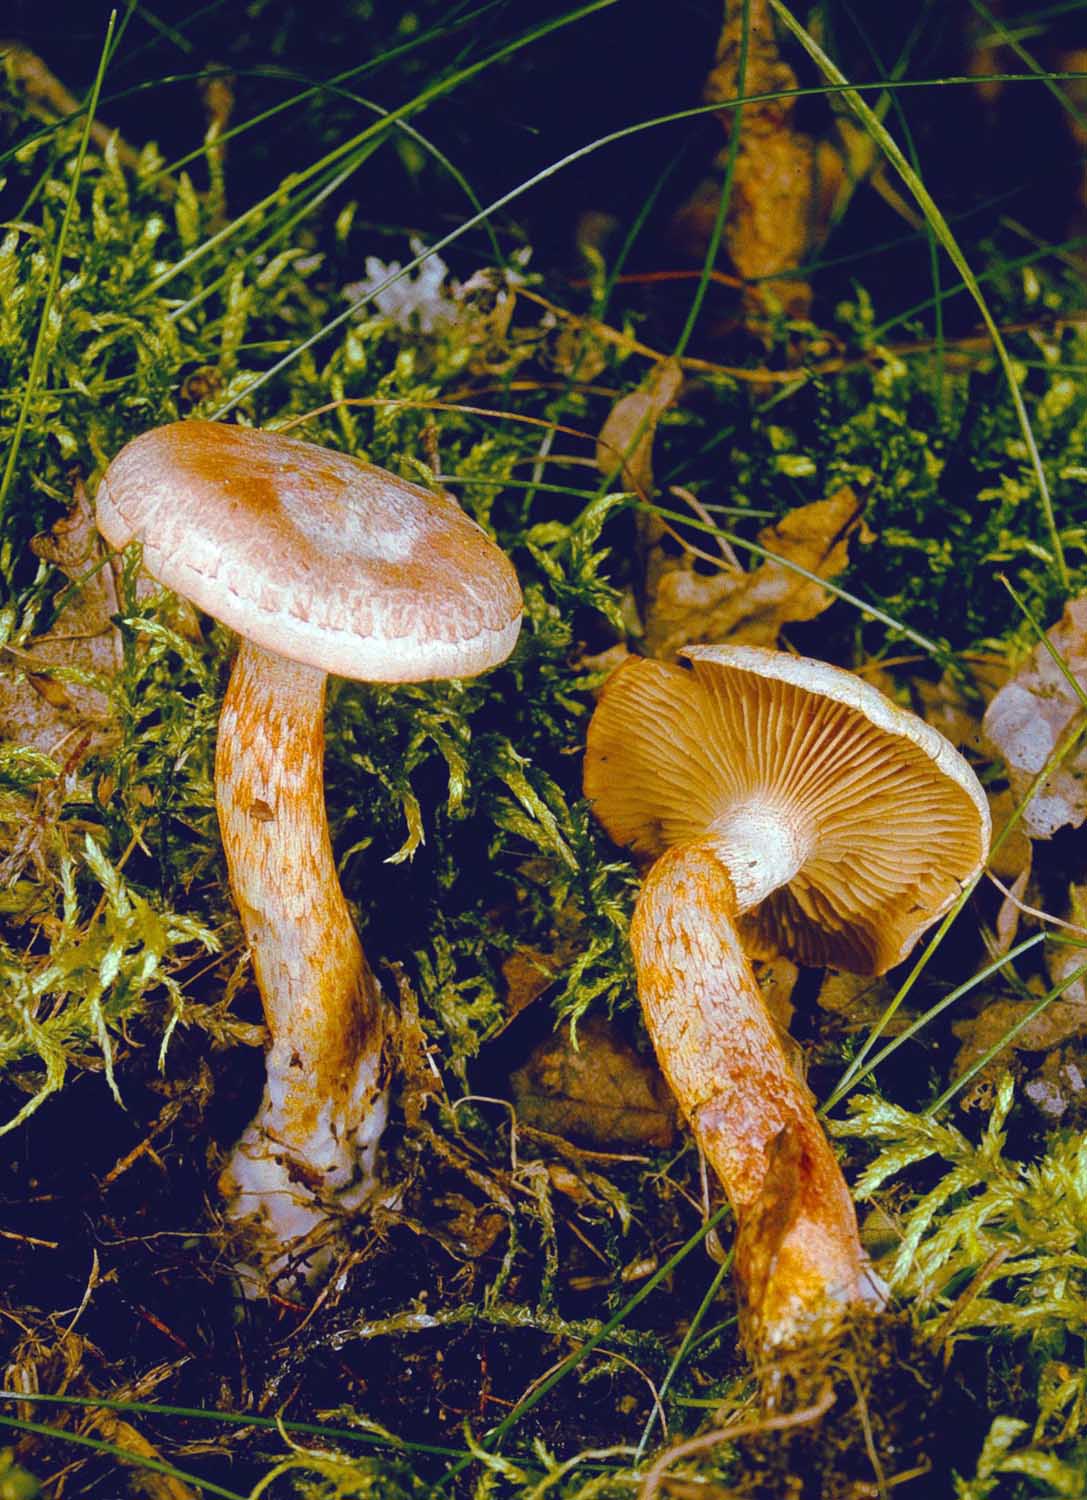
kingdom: Fungi
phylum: Basidiomycota
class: Agaricomycetes
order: Agaricales
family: Cortinariaceae
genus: Cortinarius
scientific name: Cortinarius bolaris
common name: cinnoberskællet slørhat
